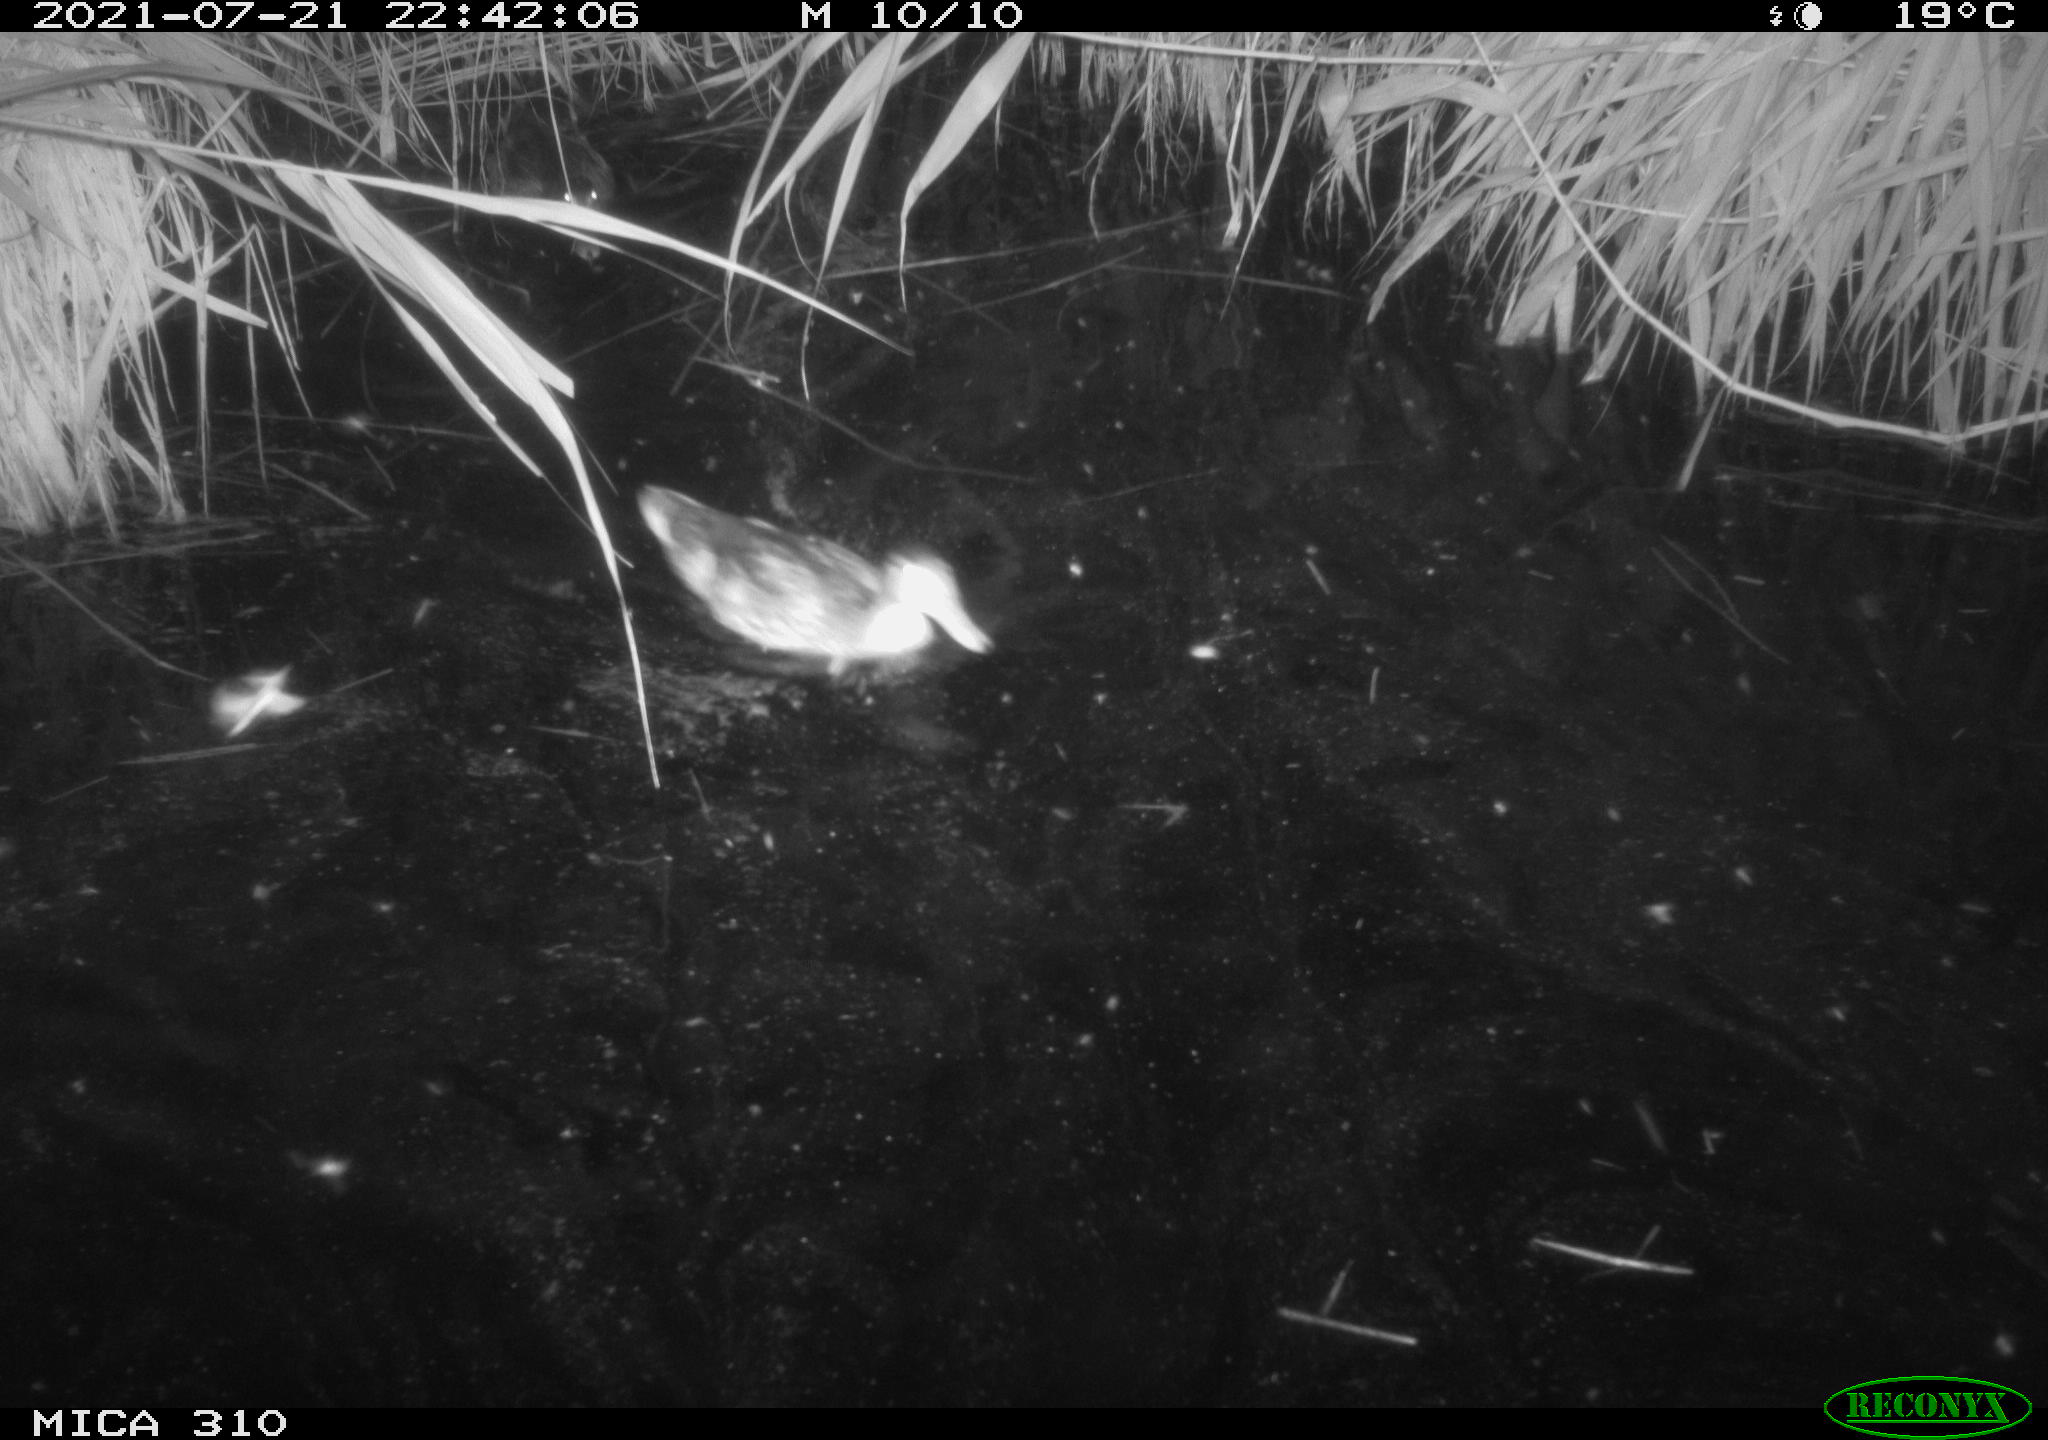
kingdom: Animalia
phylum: Chordata
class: Aves
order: Anseriformes
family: Anatidae
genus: Anas
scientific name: Anas platyrhynchos
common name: Mallard
